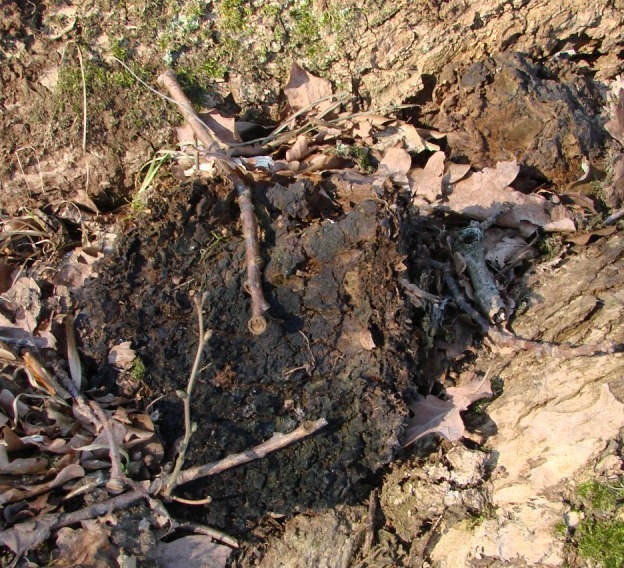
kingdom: Fungi
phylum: Basidiomycota
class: Agaricomycetes
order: Hymenochaetales
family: Hymenochaetaceae
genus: Pseudoinonotus
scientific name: Pseudoinonotus dryadeus
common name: ege-spejlporesvamp
